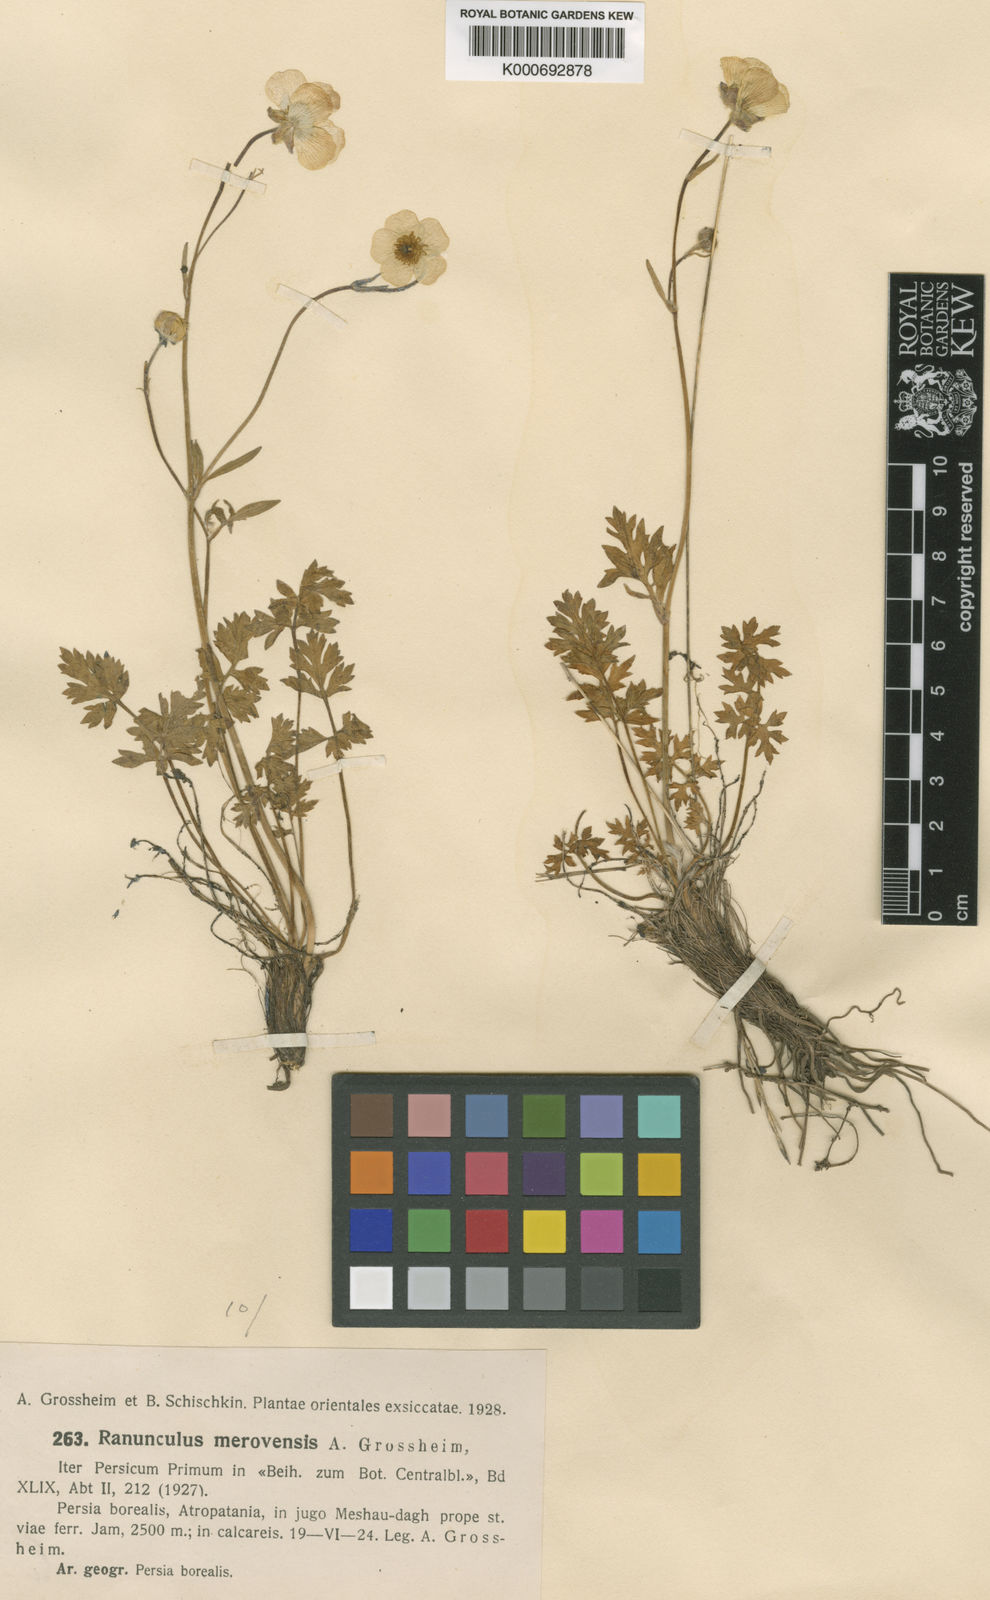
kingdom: Plantae
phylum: Tracheophyta
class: Magnoliopsida
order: Ranunculales
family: Ranunculaceae
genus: Ranunculus
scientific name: Ranunculus procumbens
